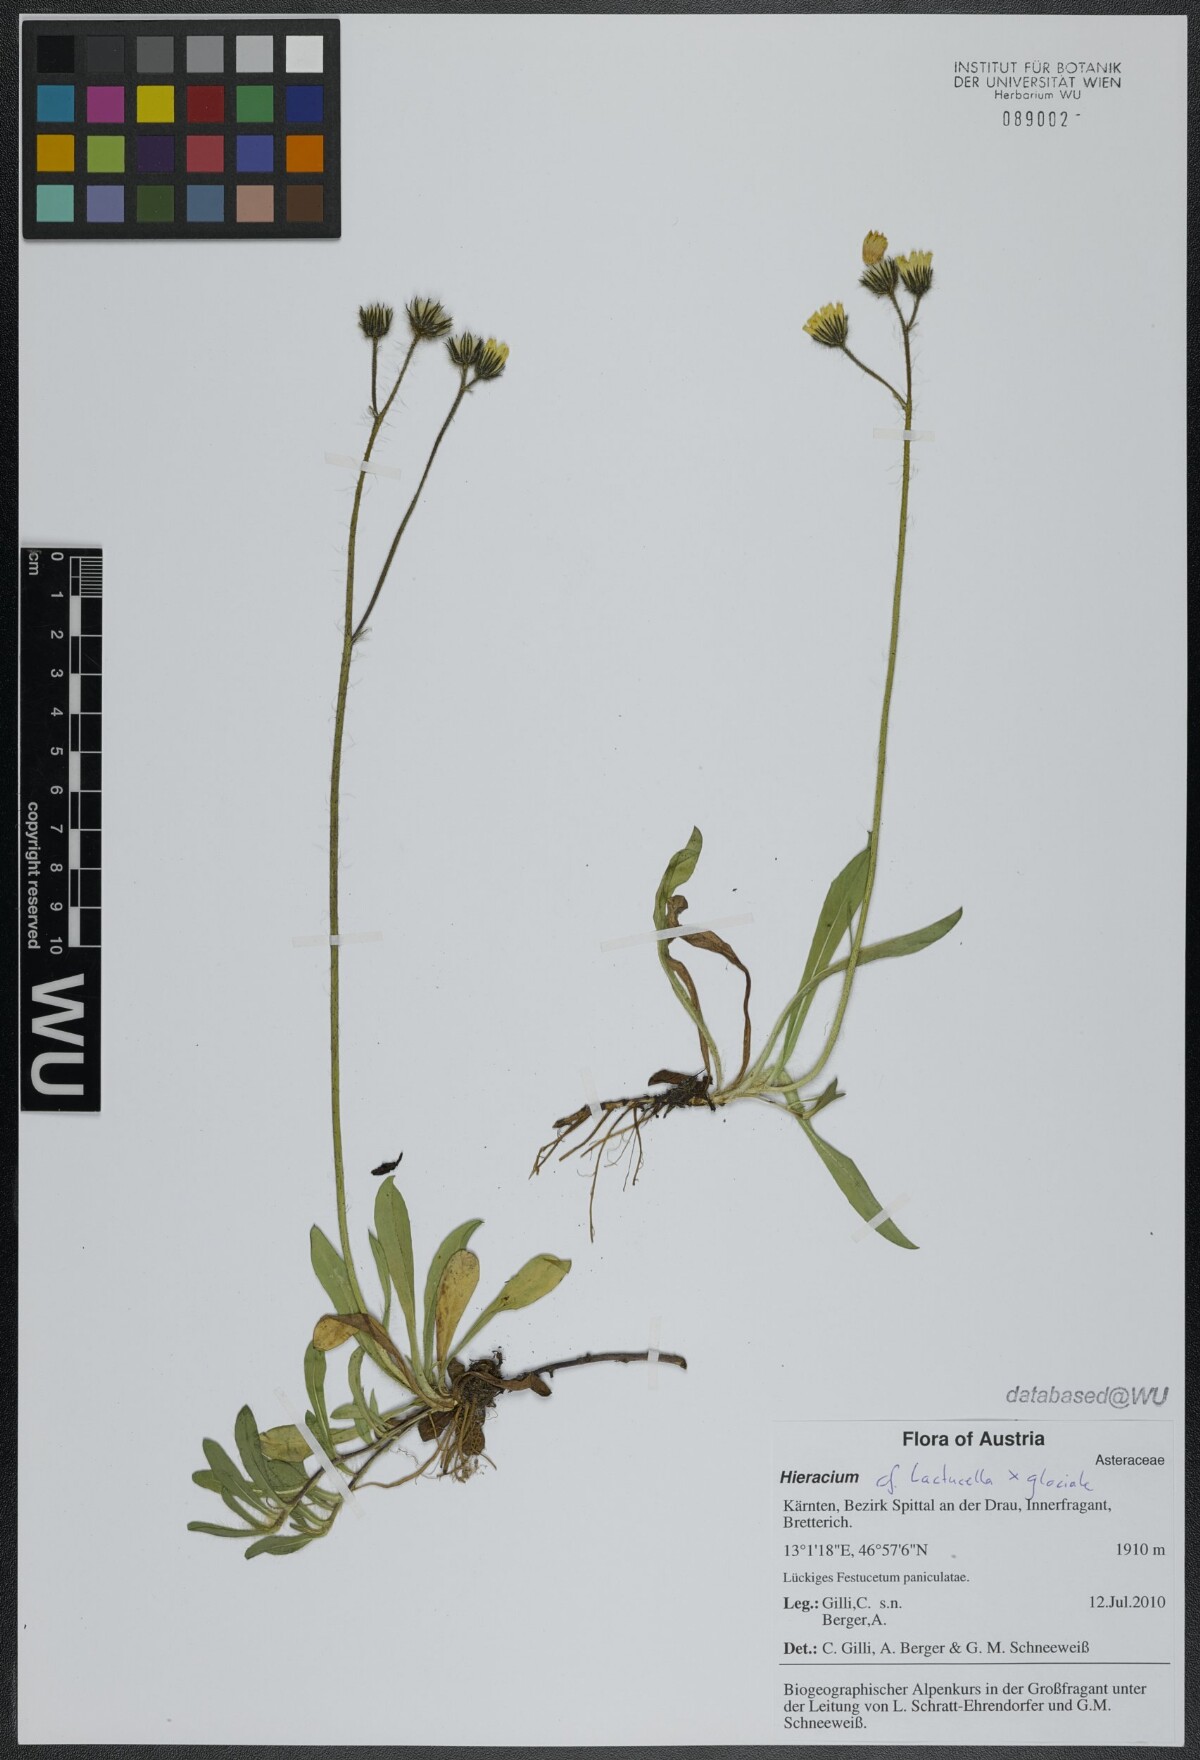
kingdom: Plantae
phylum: Tracheophyta
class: Magnoliopsida
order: Asterales
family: Asteraceae
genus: Hieracium
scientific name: Hieracium
